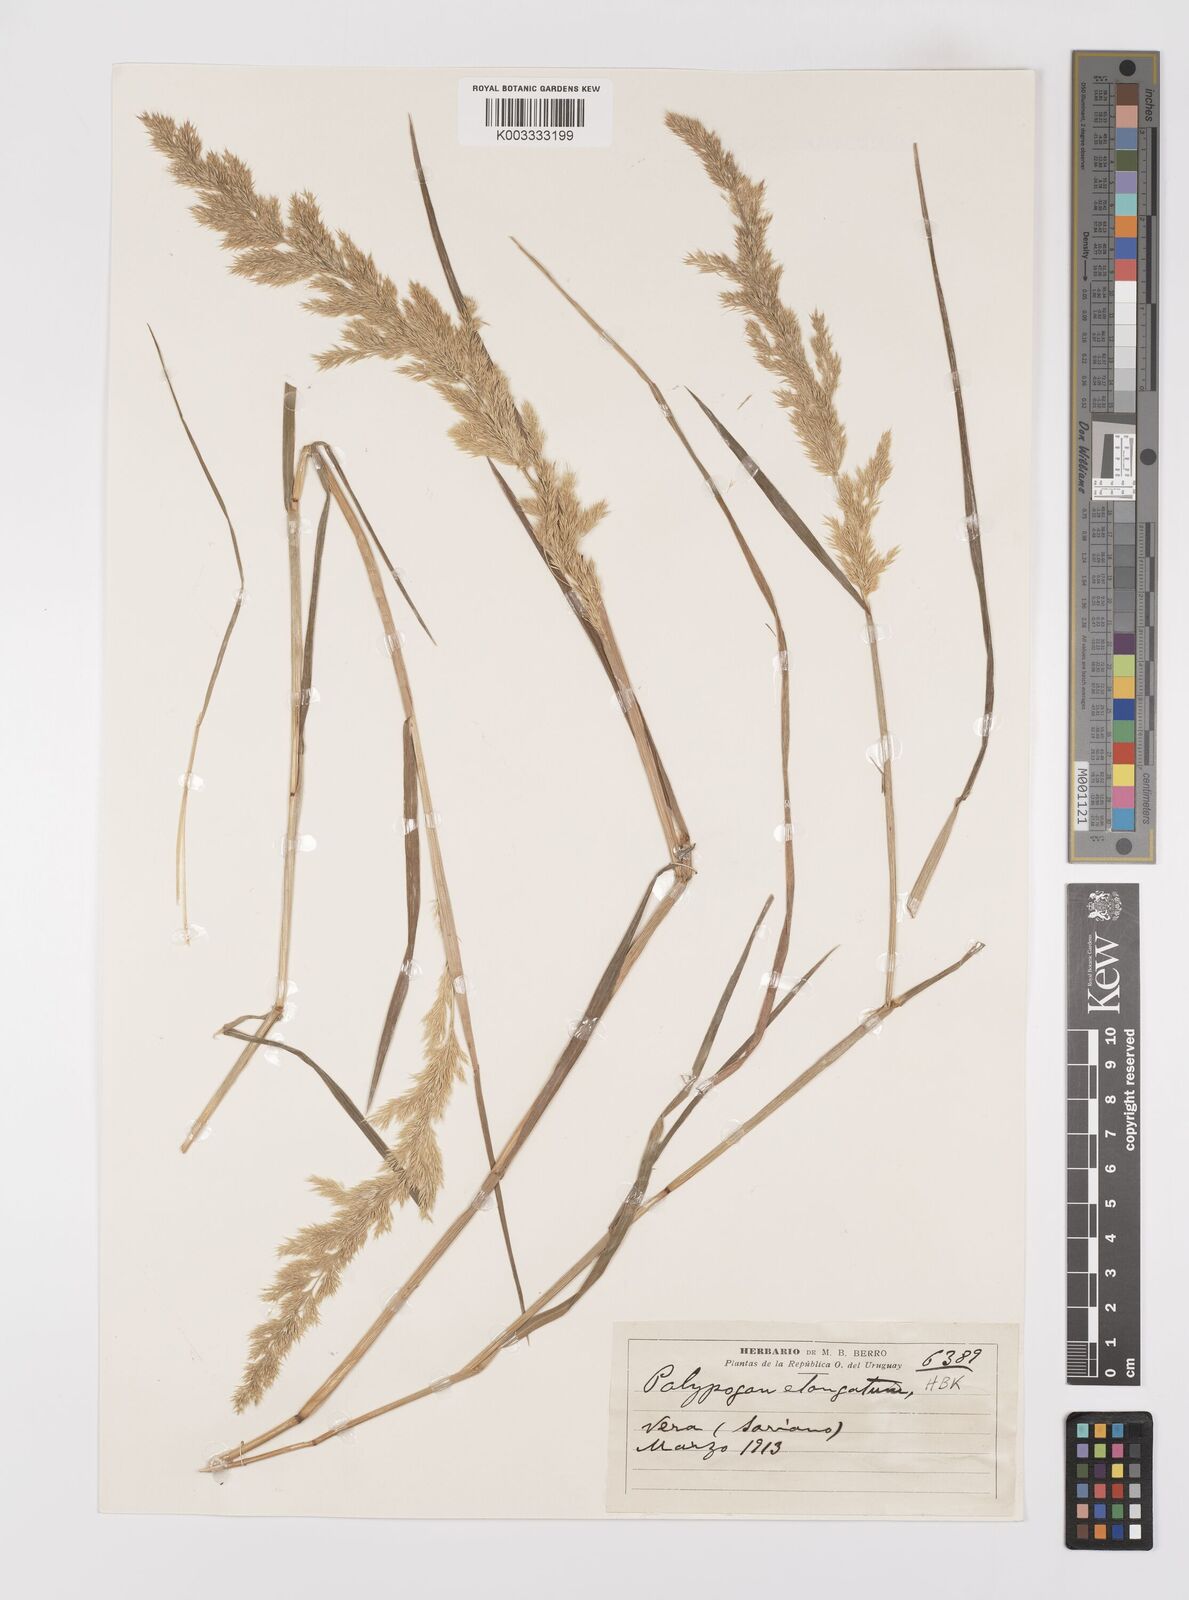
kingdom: Plantae
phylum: Tracheophyta
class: Liliopsida
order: Poales
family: Poaceae
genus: Polypogon
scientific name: Polypogon elongatus
